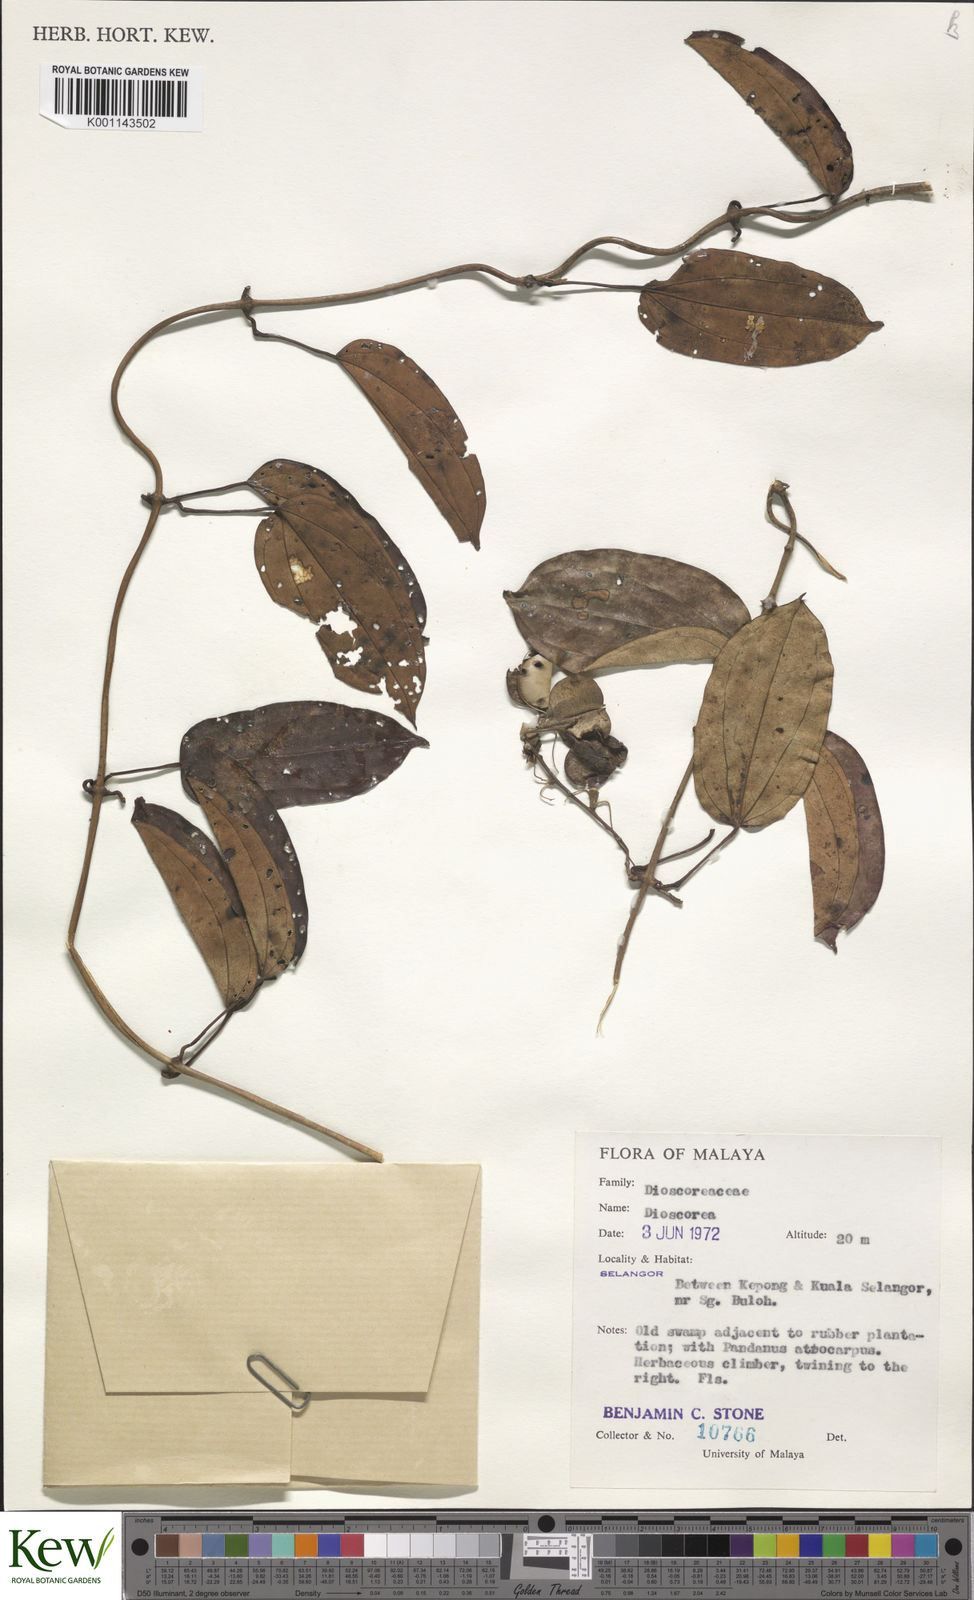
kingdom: Plantae
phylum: Tracheophyta
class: Liliopsida
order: Dioscoreales
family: Dioscoreaceae
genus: Dioscorea
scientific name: Dioscorea
